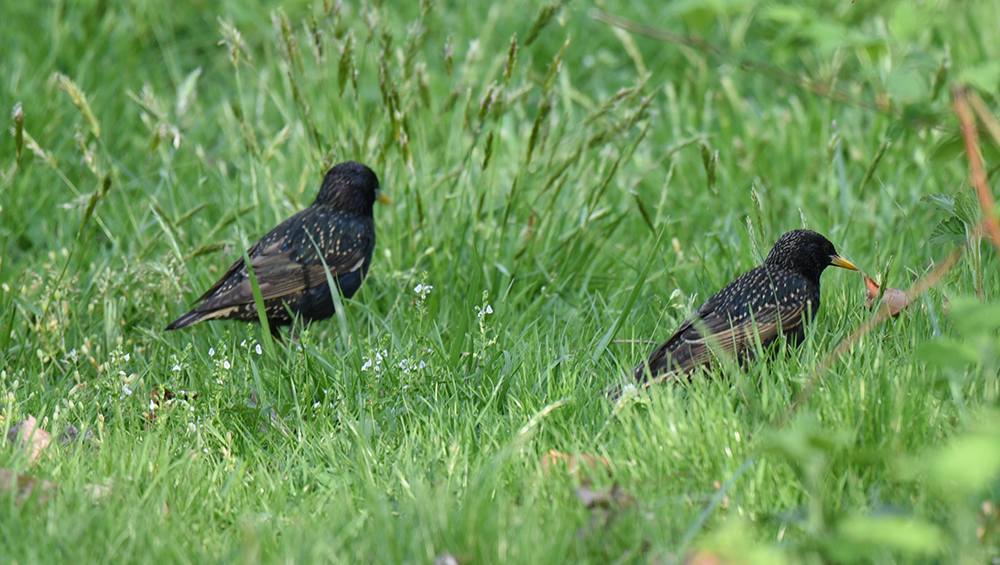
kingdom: Animalia
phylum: Chordata
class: Aves
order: Passeriformes
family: Sturnidae
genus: Sturnus
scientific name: Sturnus vulgaris
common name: Common starling
